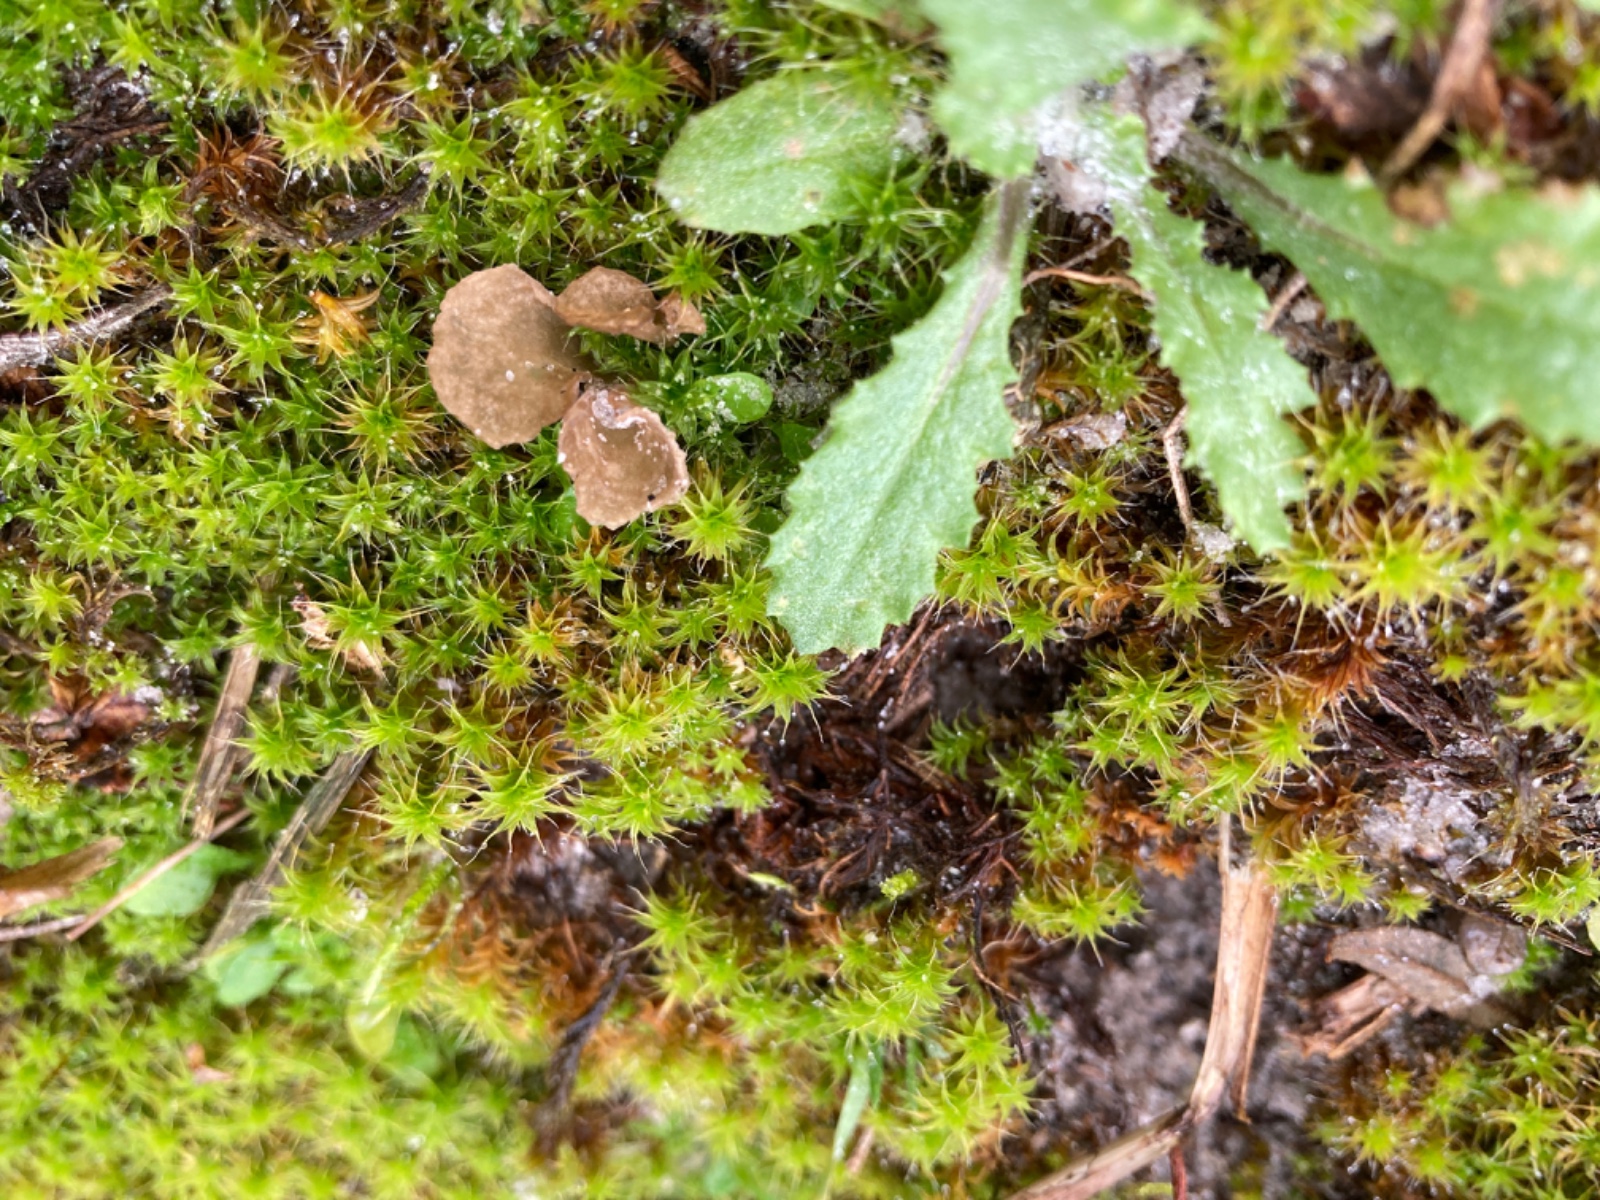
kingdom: Fungi
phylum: Basidiomycota
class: Agaricomycetes
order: Agaricales
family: Hygrophoraceae
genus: Arrhenia
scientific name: Arrhenia spathulata
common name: skæv fontænehat
